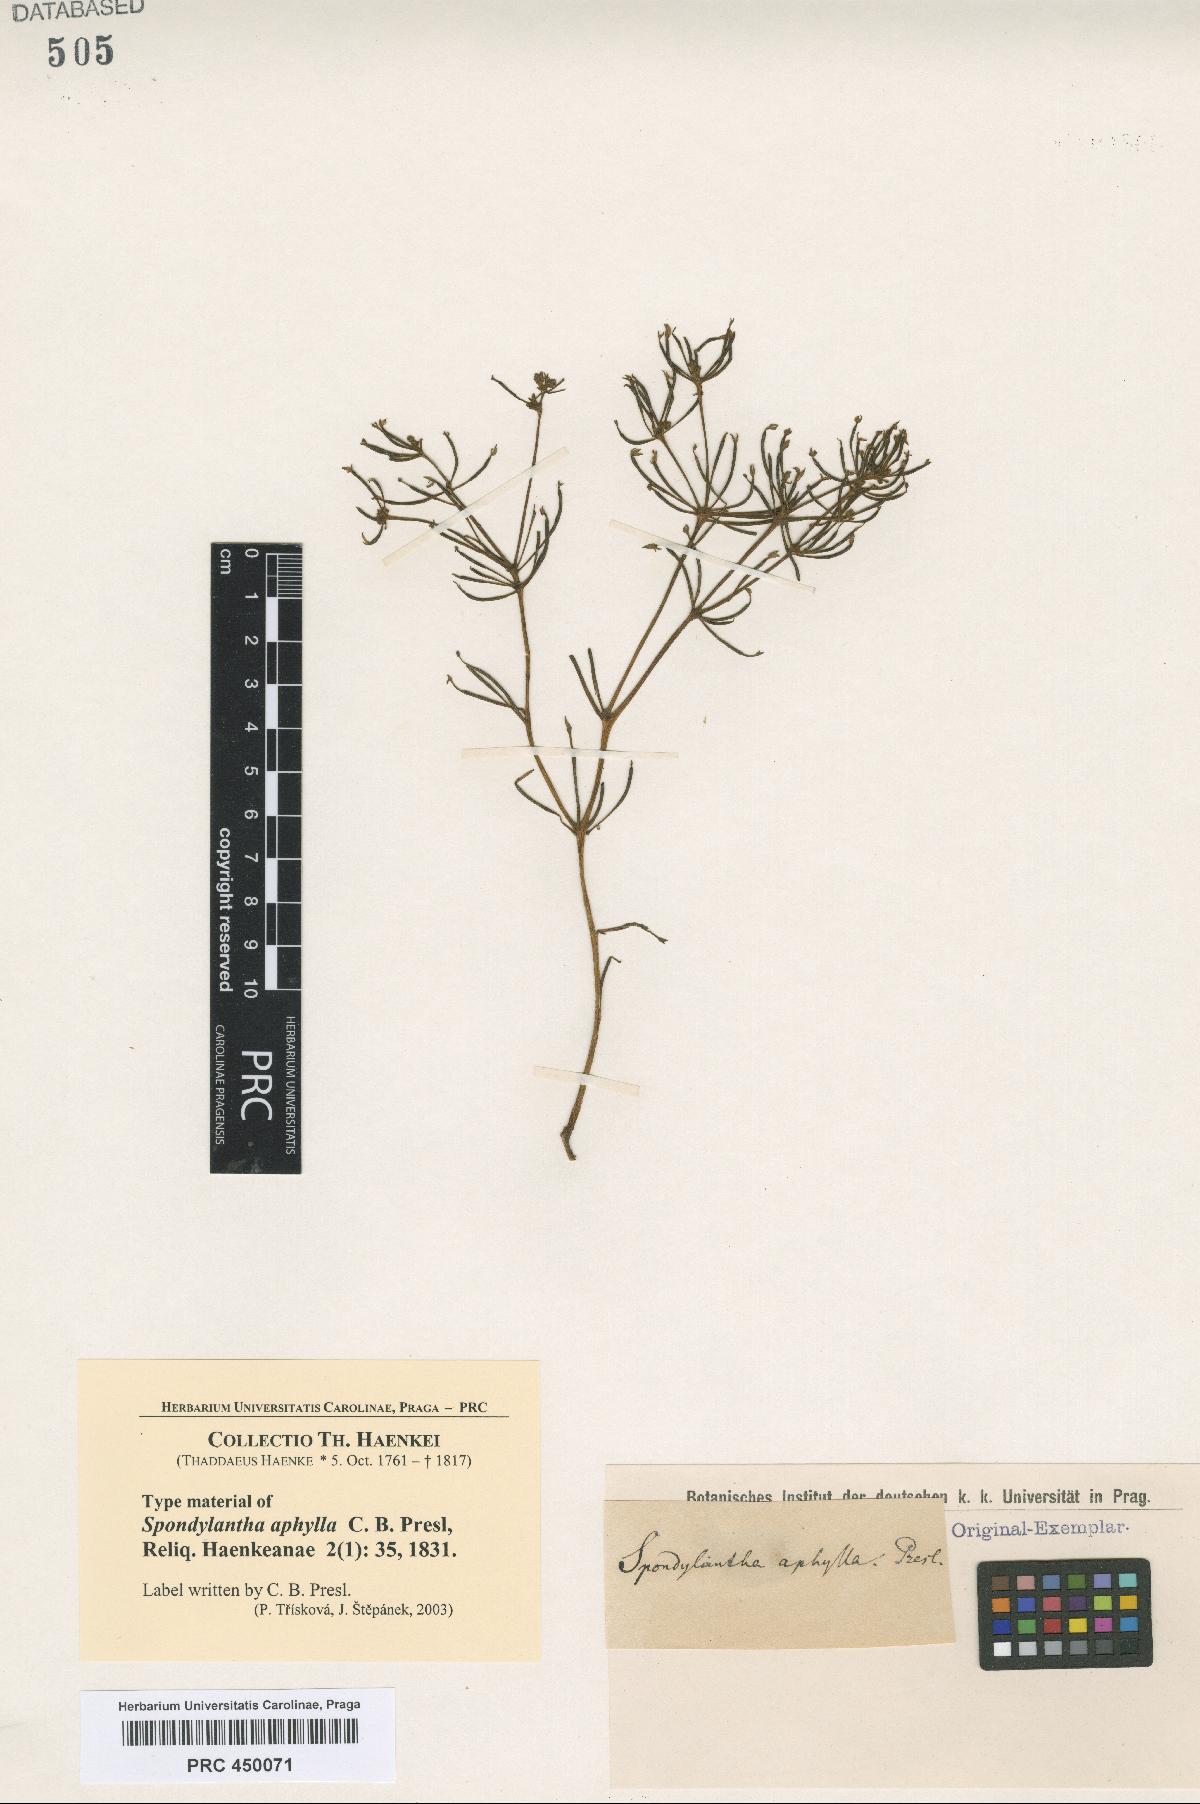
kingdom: Plantae
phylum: Tracheophyta
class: Magnoliopsida
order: Vitales
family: Vitaceae
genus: Cissus
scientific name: Cissus verticillata
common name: Princess vine
